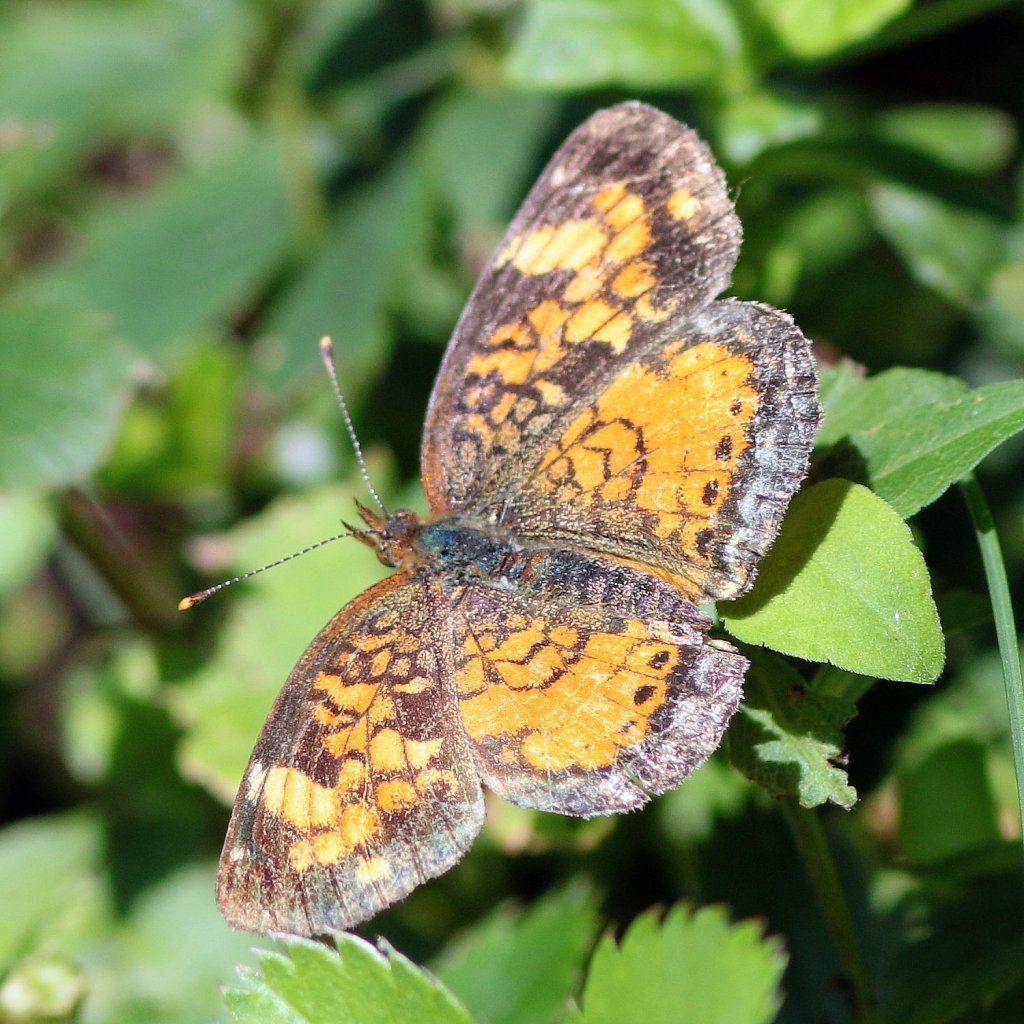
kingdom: Animalia
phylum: Arthropoda
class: Insecta
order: Lepidoptera
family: Nymphalidae
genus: Phyciodes
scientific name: Phyciodes tharos
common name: Northern Crescent
